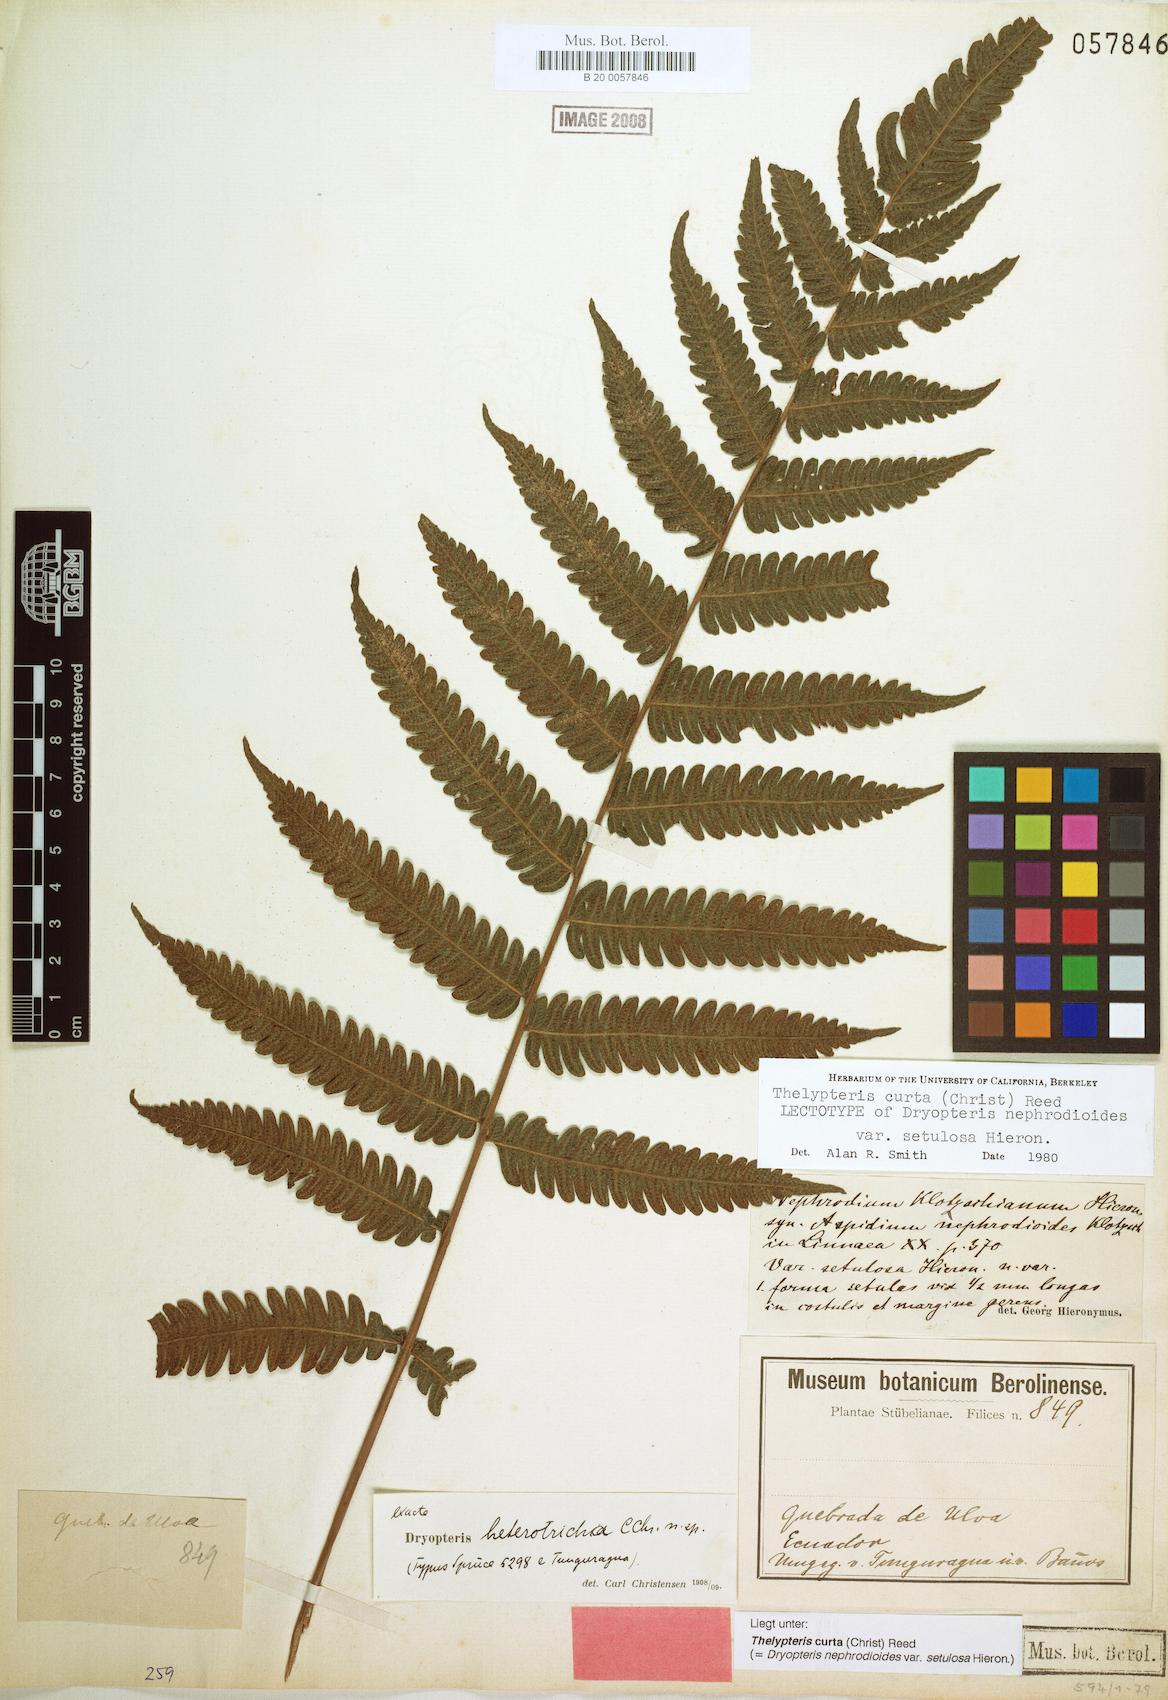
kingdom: Plantae
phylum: Tracheophyta
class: Polypodiopsida
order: Polypodiales
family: Thelypteridaceae
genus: Goniopteris
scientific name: Goniopteris curta
